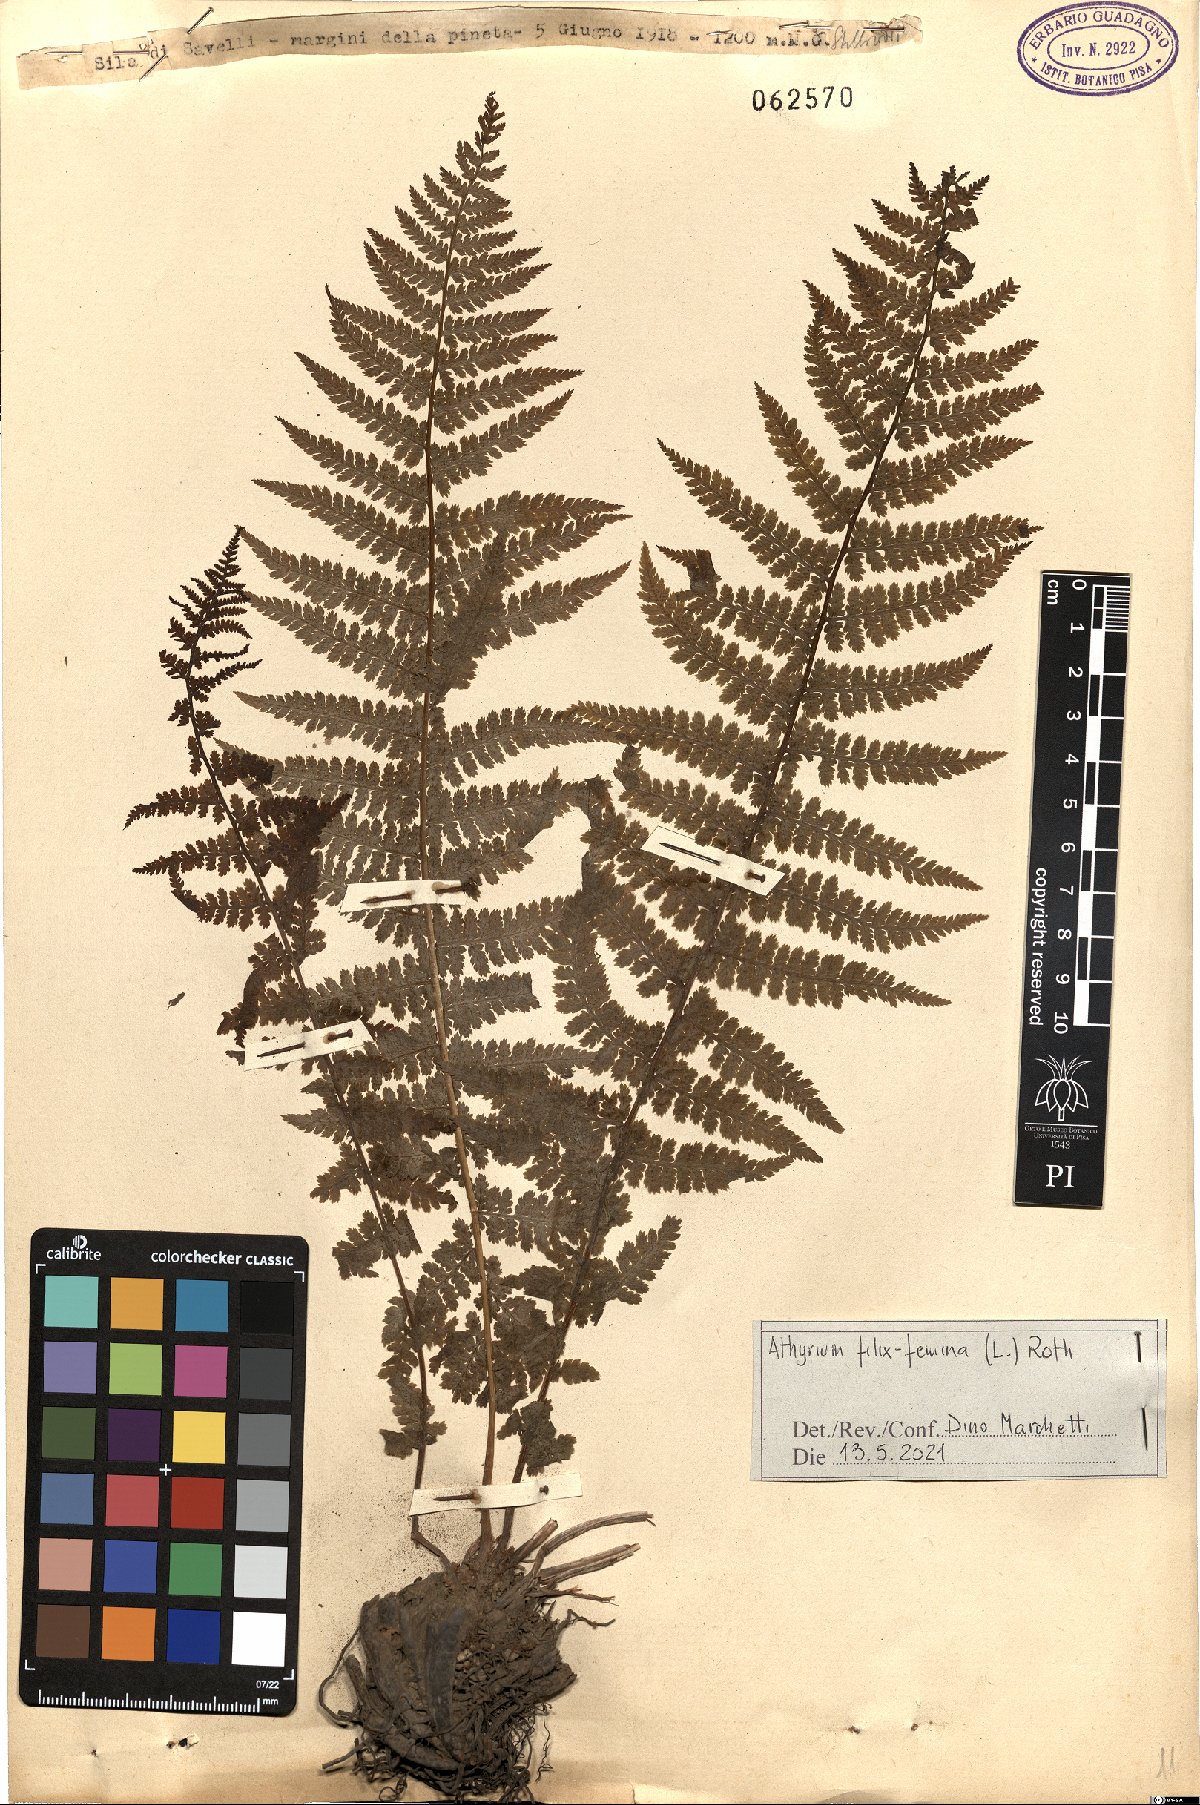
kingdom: Plantae
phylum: Tracheophyta
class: Polypodiopsida
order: Polypodiales
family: Athyriaceae
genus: Athyrium
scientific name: Athyrium filix-femina
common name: Lady fern
